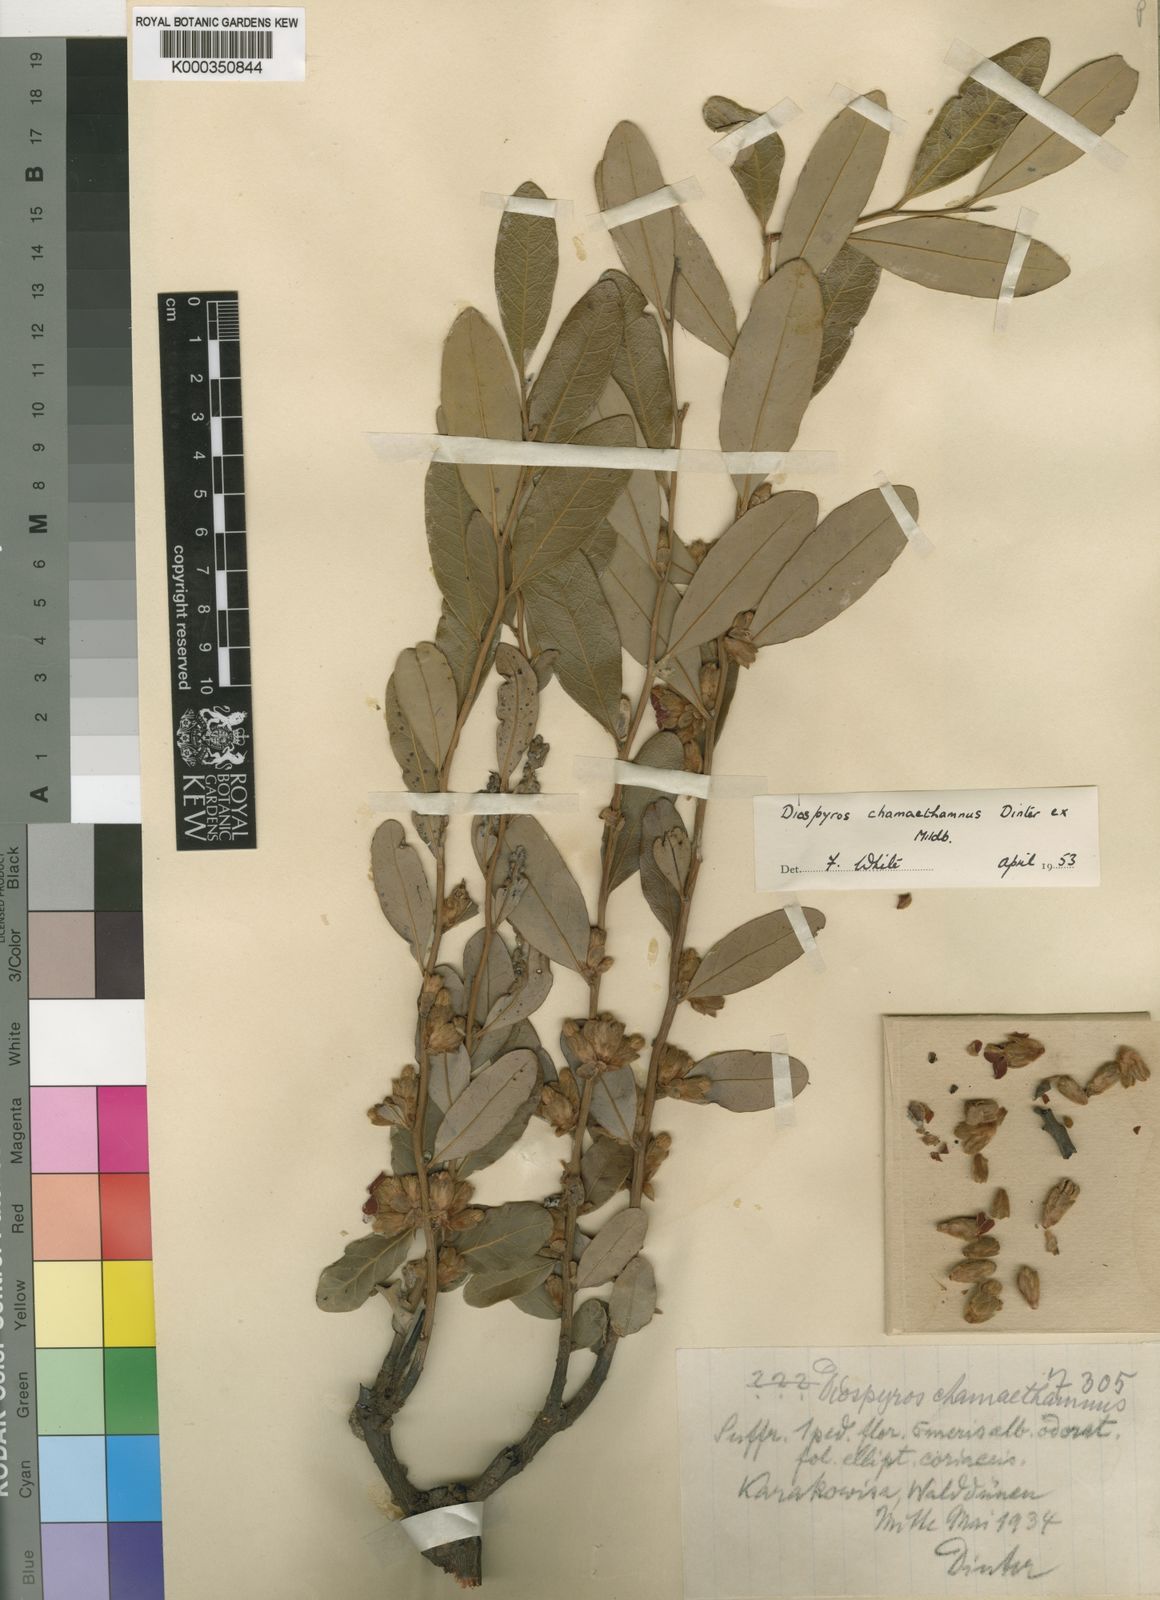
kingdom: Plantae
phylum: Tracheophyta
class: Magnoliopsida
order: Ericales
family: Ebenaceae
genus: Diospyros
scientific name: Diospyros chamaethamnus
